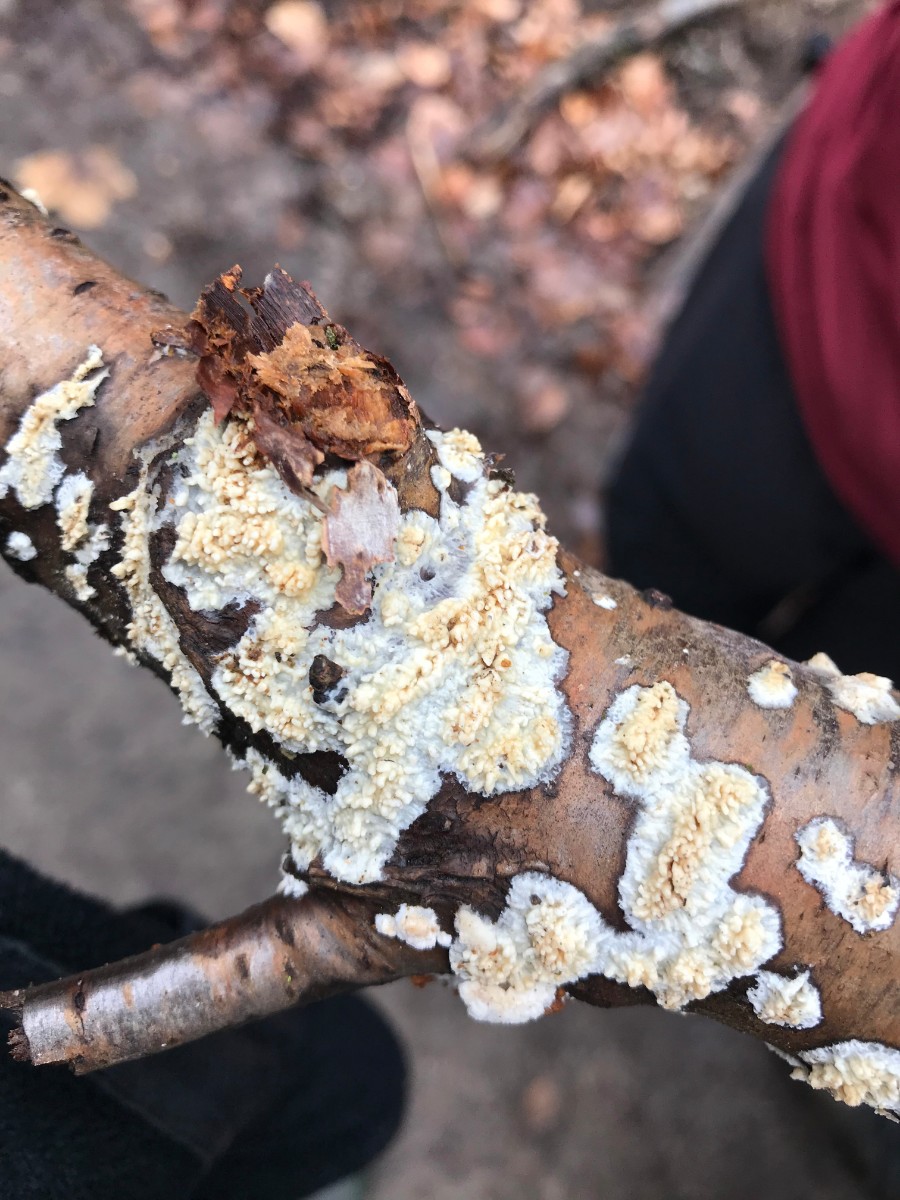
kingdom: Fungi
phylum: Basidiomycota
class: Agaricomycetes
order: Hymenochaetales
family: Schizoporaceae
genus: Xylodon
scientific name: Xylodon radula
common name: grovtandet kalkskind
